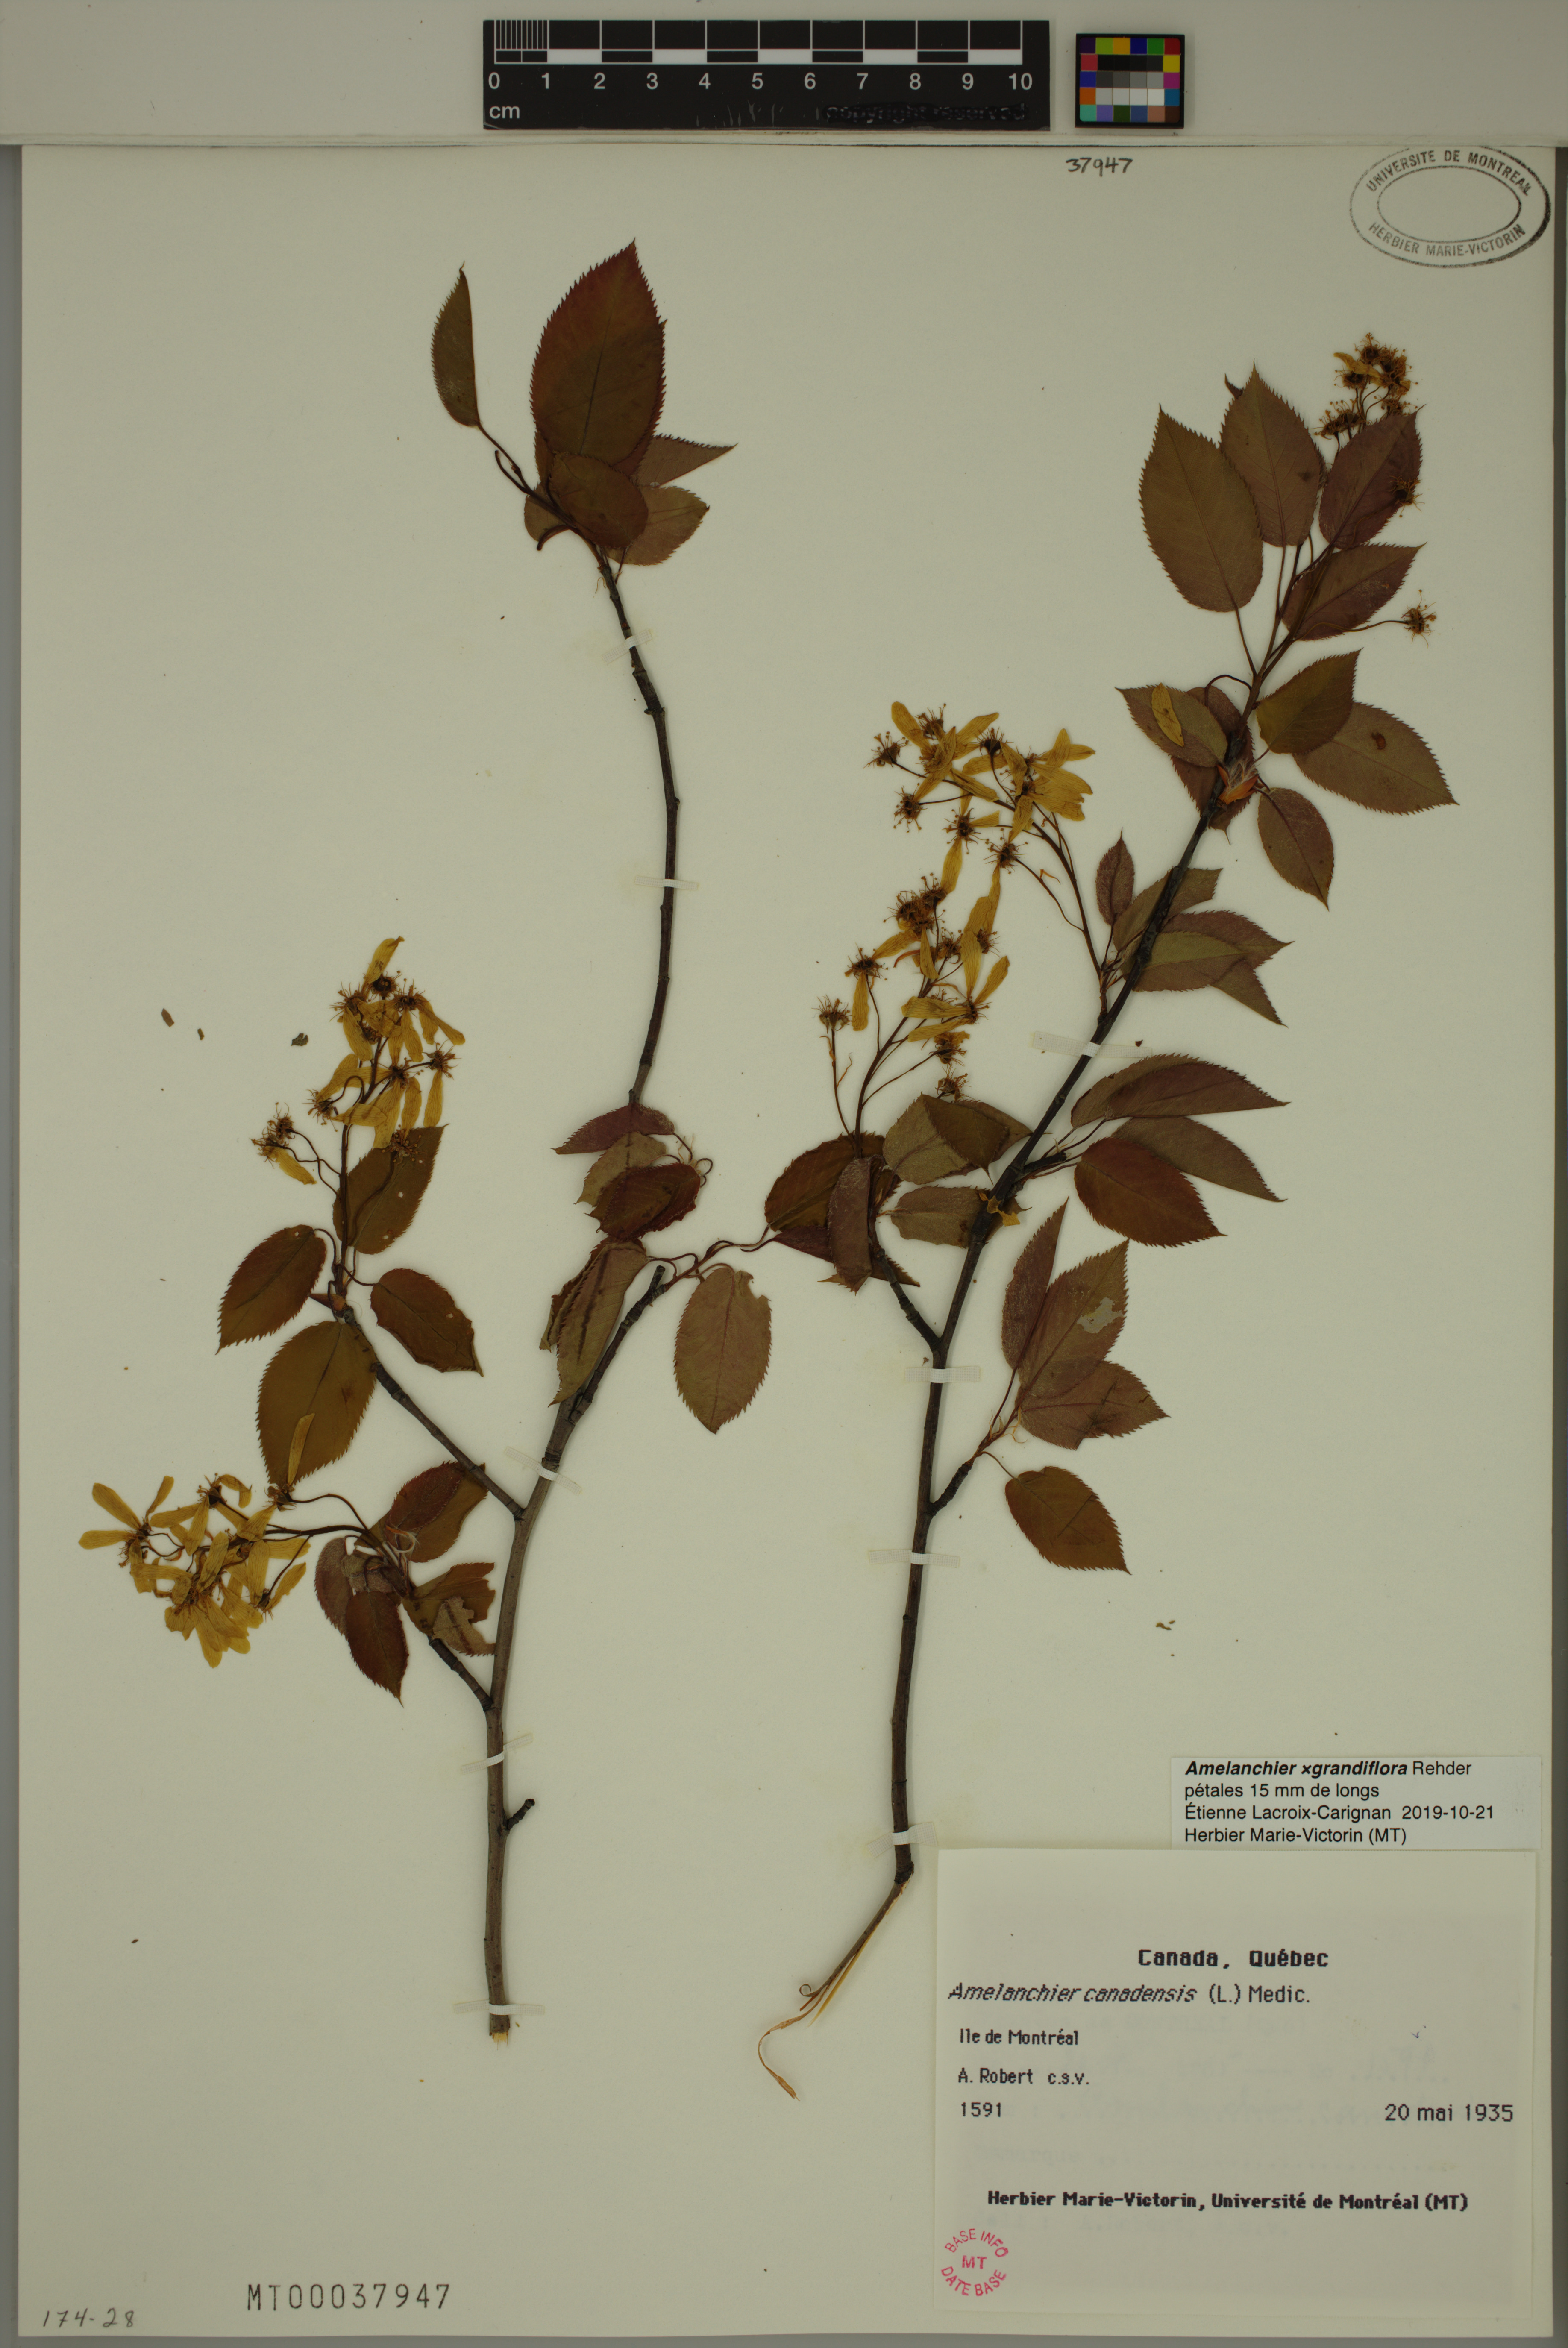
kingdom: Plantae
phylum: Tracheophyta
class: Magnoliopsida
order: Rosales
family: Rosaceae
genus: Amelanchier
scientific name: Amelanchier lamarckii
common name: Juneberry
